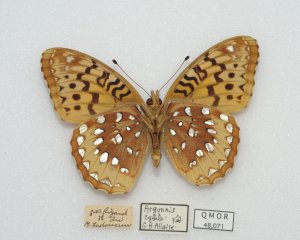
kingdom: Animalia
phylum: Arthropoda
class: Insecta
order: Lepidoptera
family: Nymphalidae
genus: Speyeria
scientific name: Speyeria cybele
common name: Great Spangled Fritillary
